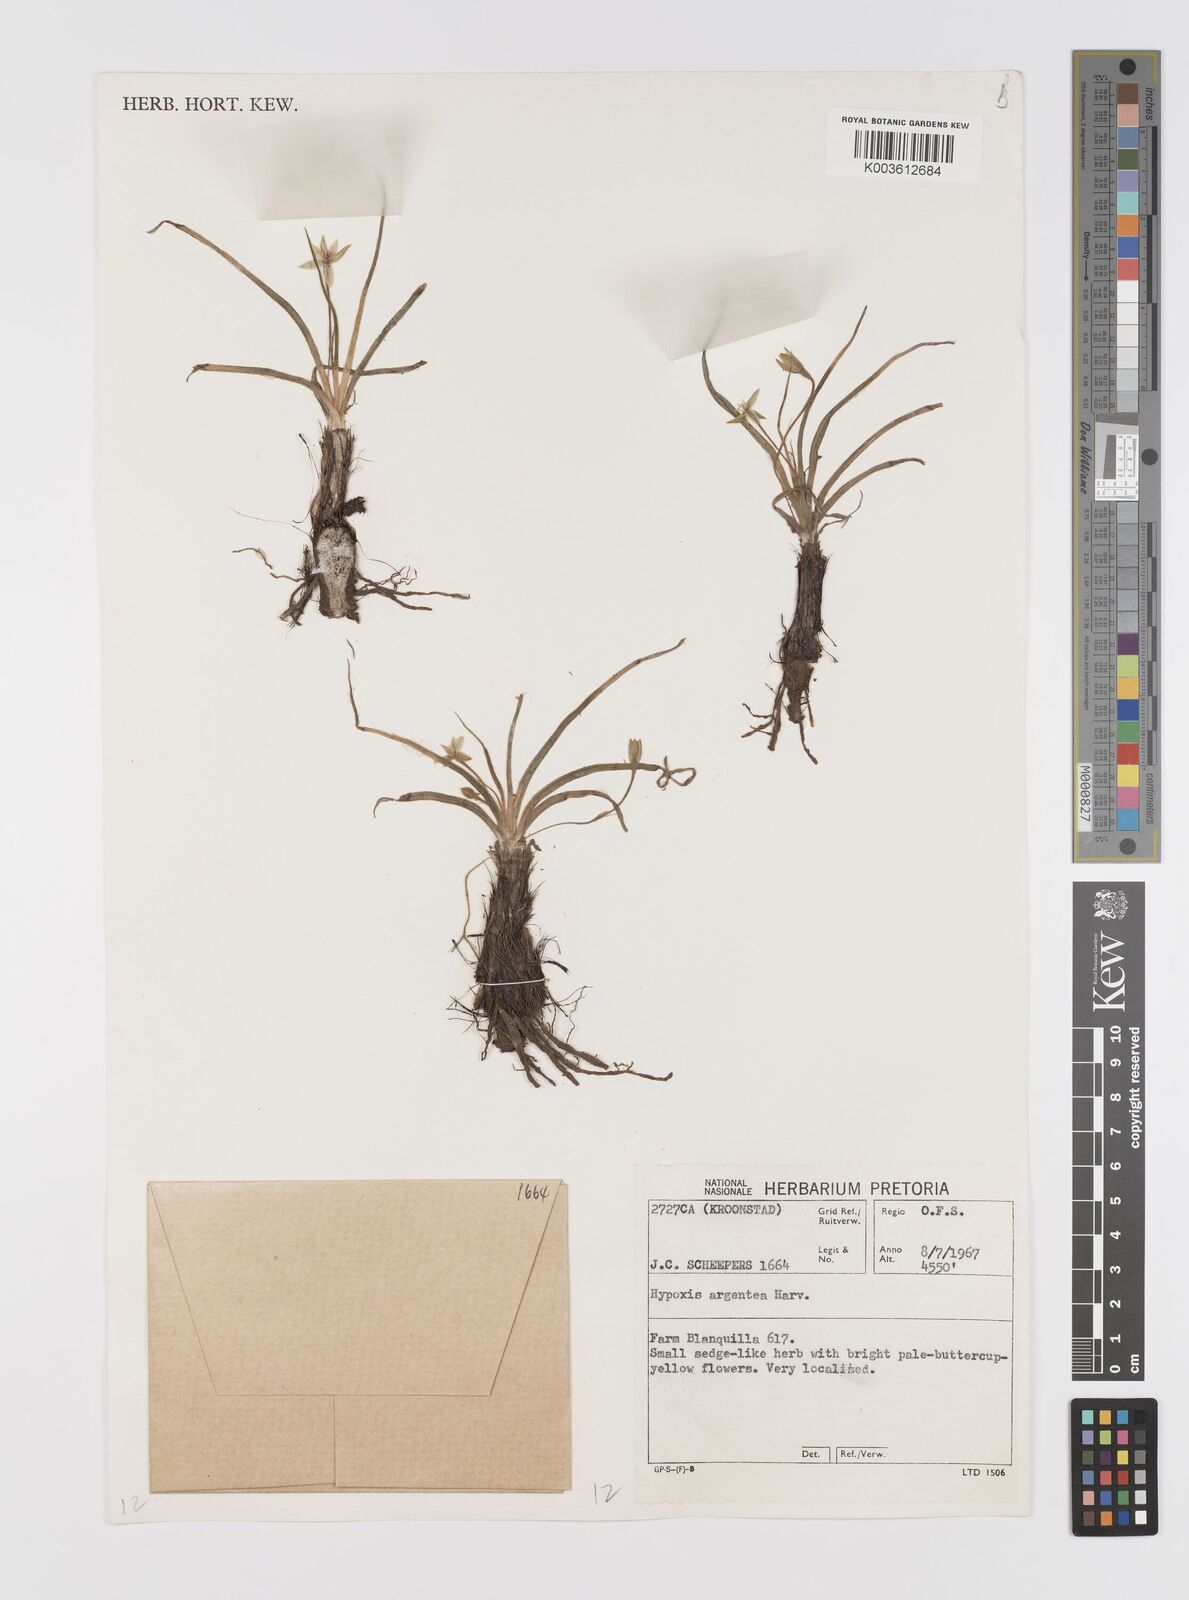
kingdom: Plantae
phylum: Tracheophyta
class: Liliopsida
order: Asparagales
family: Hypoxidaceae
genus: Hypoxis
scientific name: Hypoxis argentea
